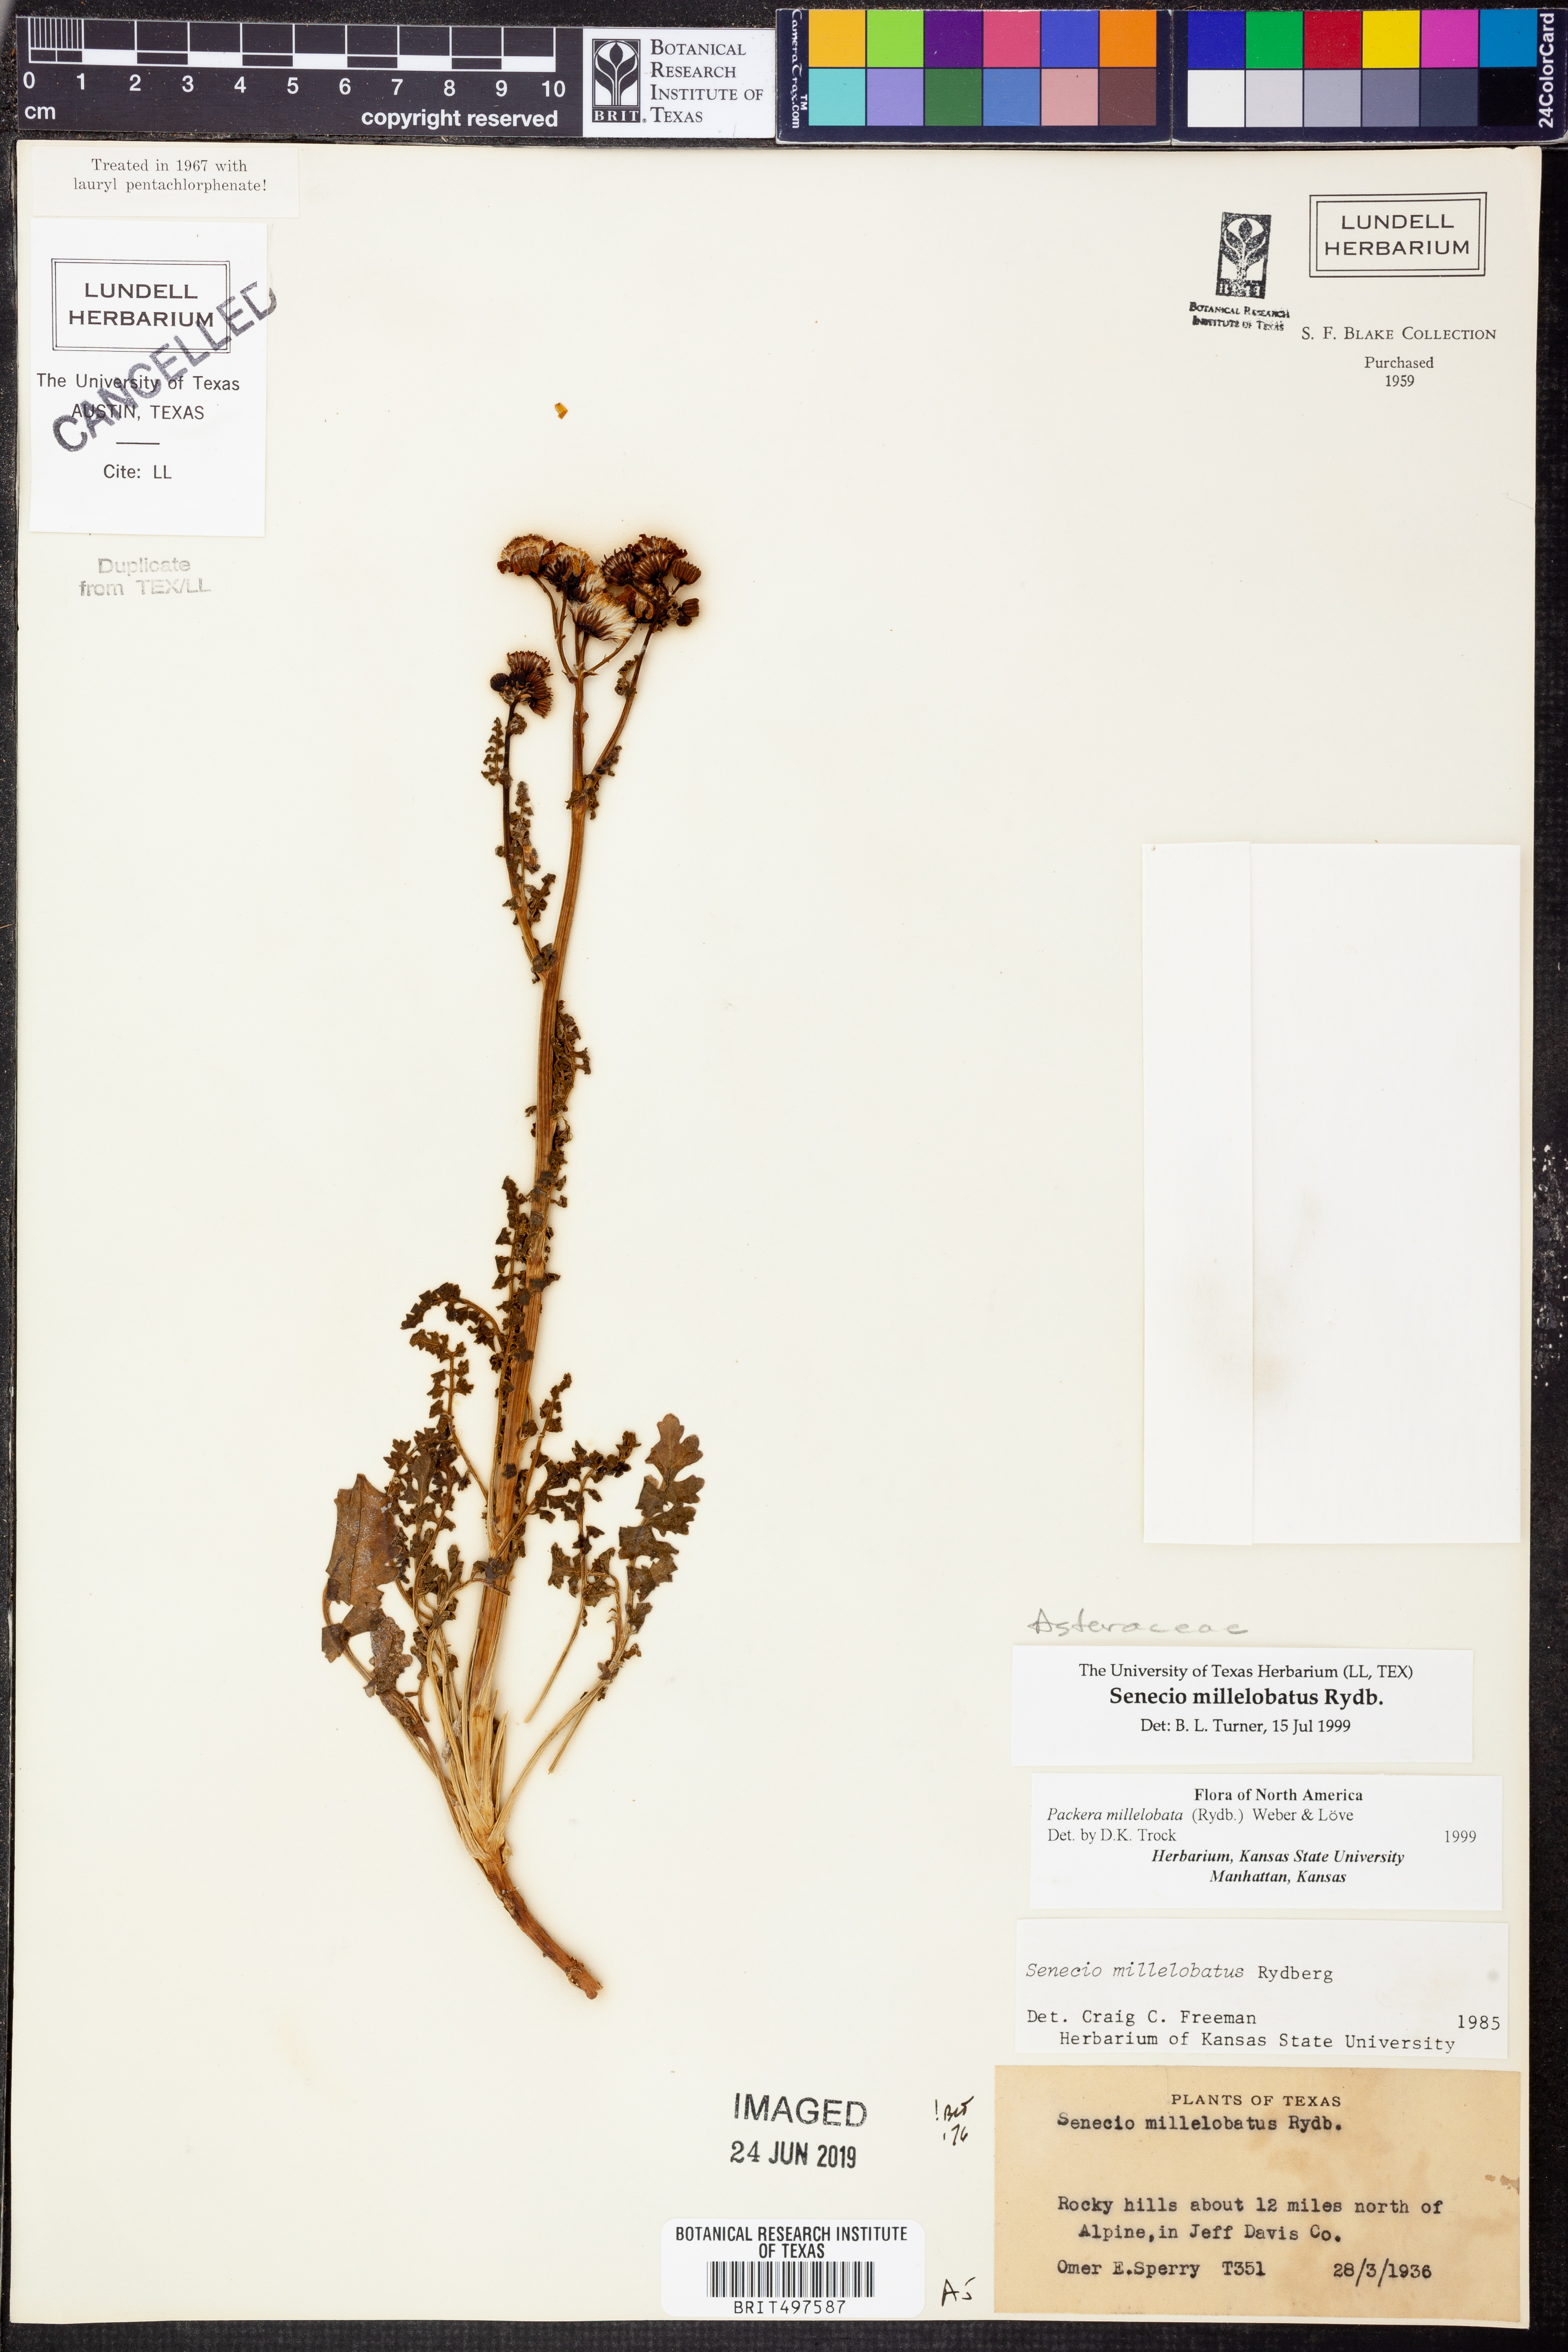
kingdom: Plantae
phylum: Tracheophyta
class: Magnoliopsida
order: Asterales
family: Asteraceae
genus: Packera
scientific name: Packera millelobata
